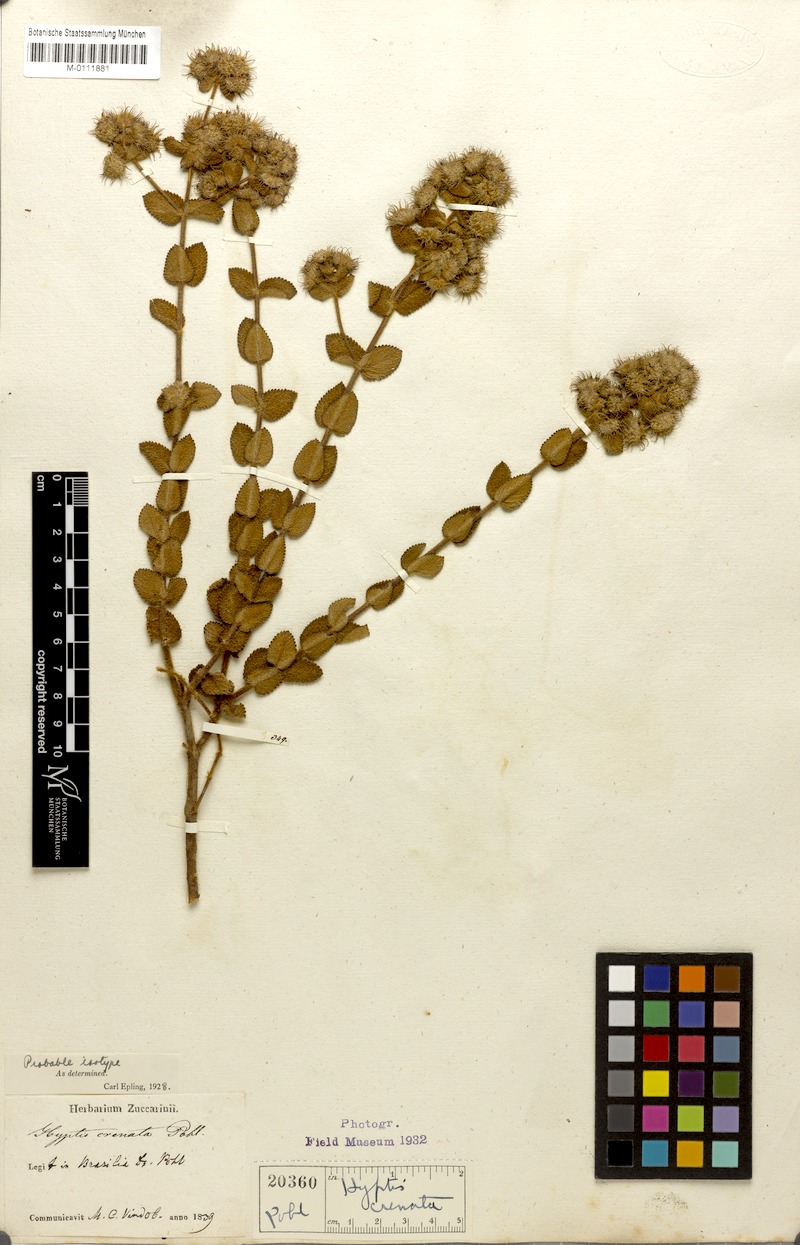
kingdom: Plantae
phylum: Tracheophyta
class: Magnoliopsida
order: Lamiales
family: Lamiaceae
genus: Hyptis
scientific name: Hyptis crenata
